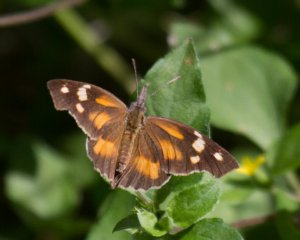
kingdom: Animalia
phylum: Arthropoda
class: Insecta
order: Lepidoptera
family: Nymphalidae
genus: Libytheana
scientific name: Libytheana carinenta
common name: American Snout
